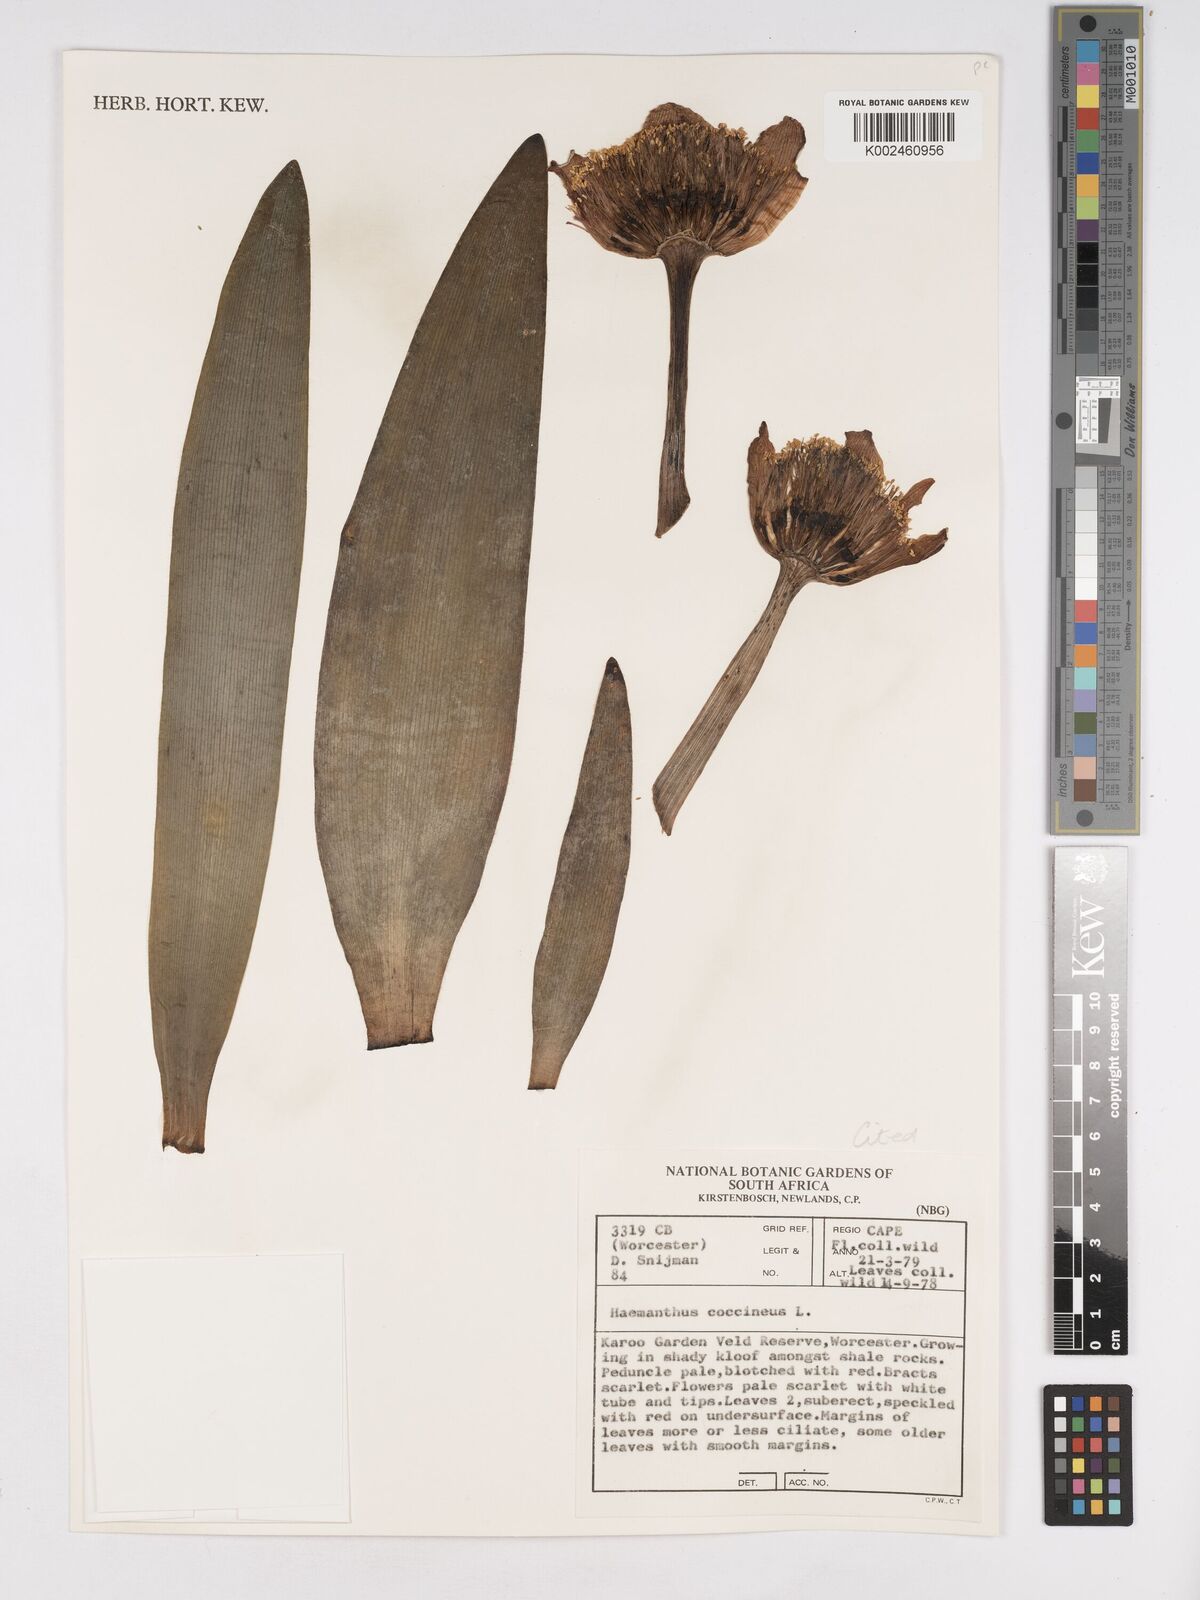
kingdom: Plantae
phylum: Tracheophyta
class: Liliopsida
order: Asparagales
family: Amaryllidaceae
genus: Haemanthus
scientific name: Haemanthus coccineus
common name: Cape-tulip
